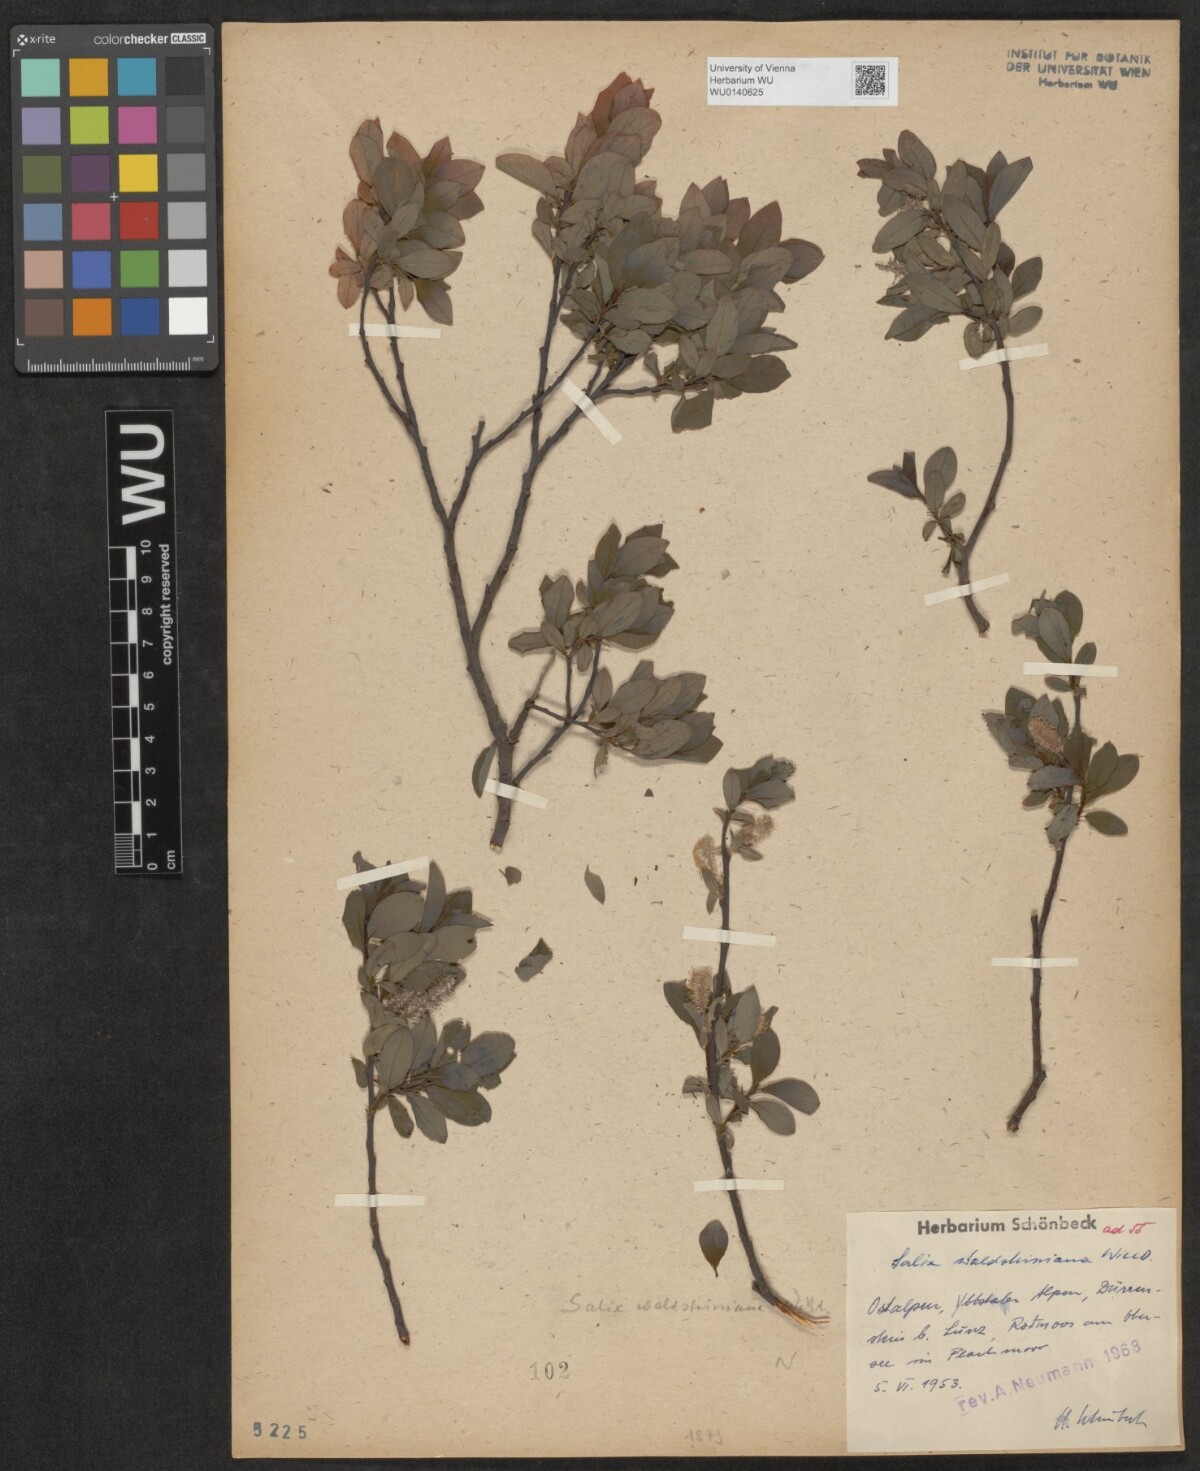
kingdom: Plantae
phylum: Tracheophyta
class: Magnoliopsida
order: Malpighiales
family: Salicaceae
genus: Salix
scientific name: Salix waldsteiniana
